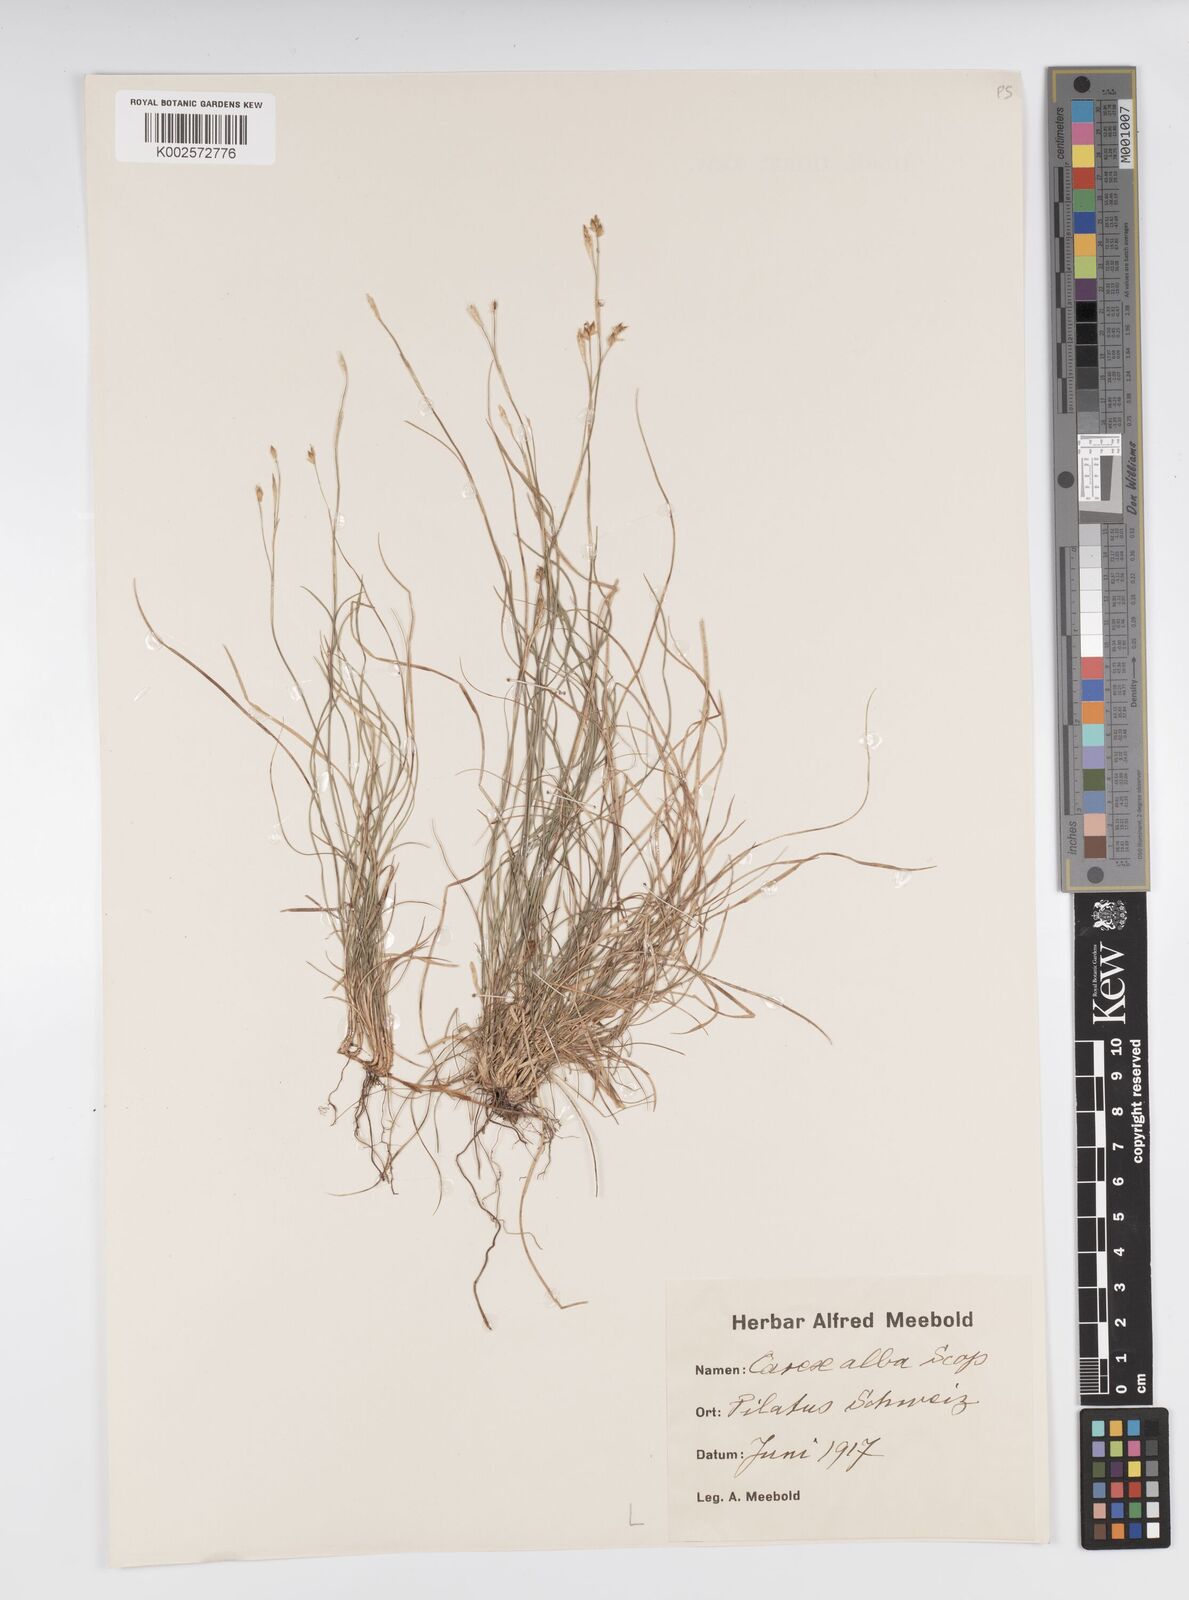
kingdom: Plantae
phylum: Tracheophyta
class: Liliopsida
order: Poales
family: Cyperaceae
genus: Carex
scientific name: Carex alba
